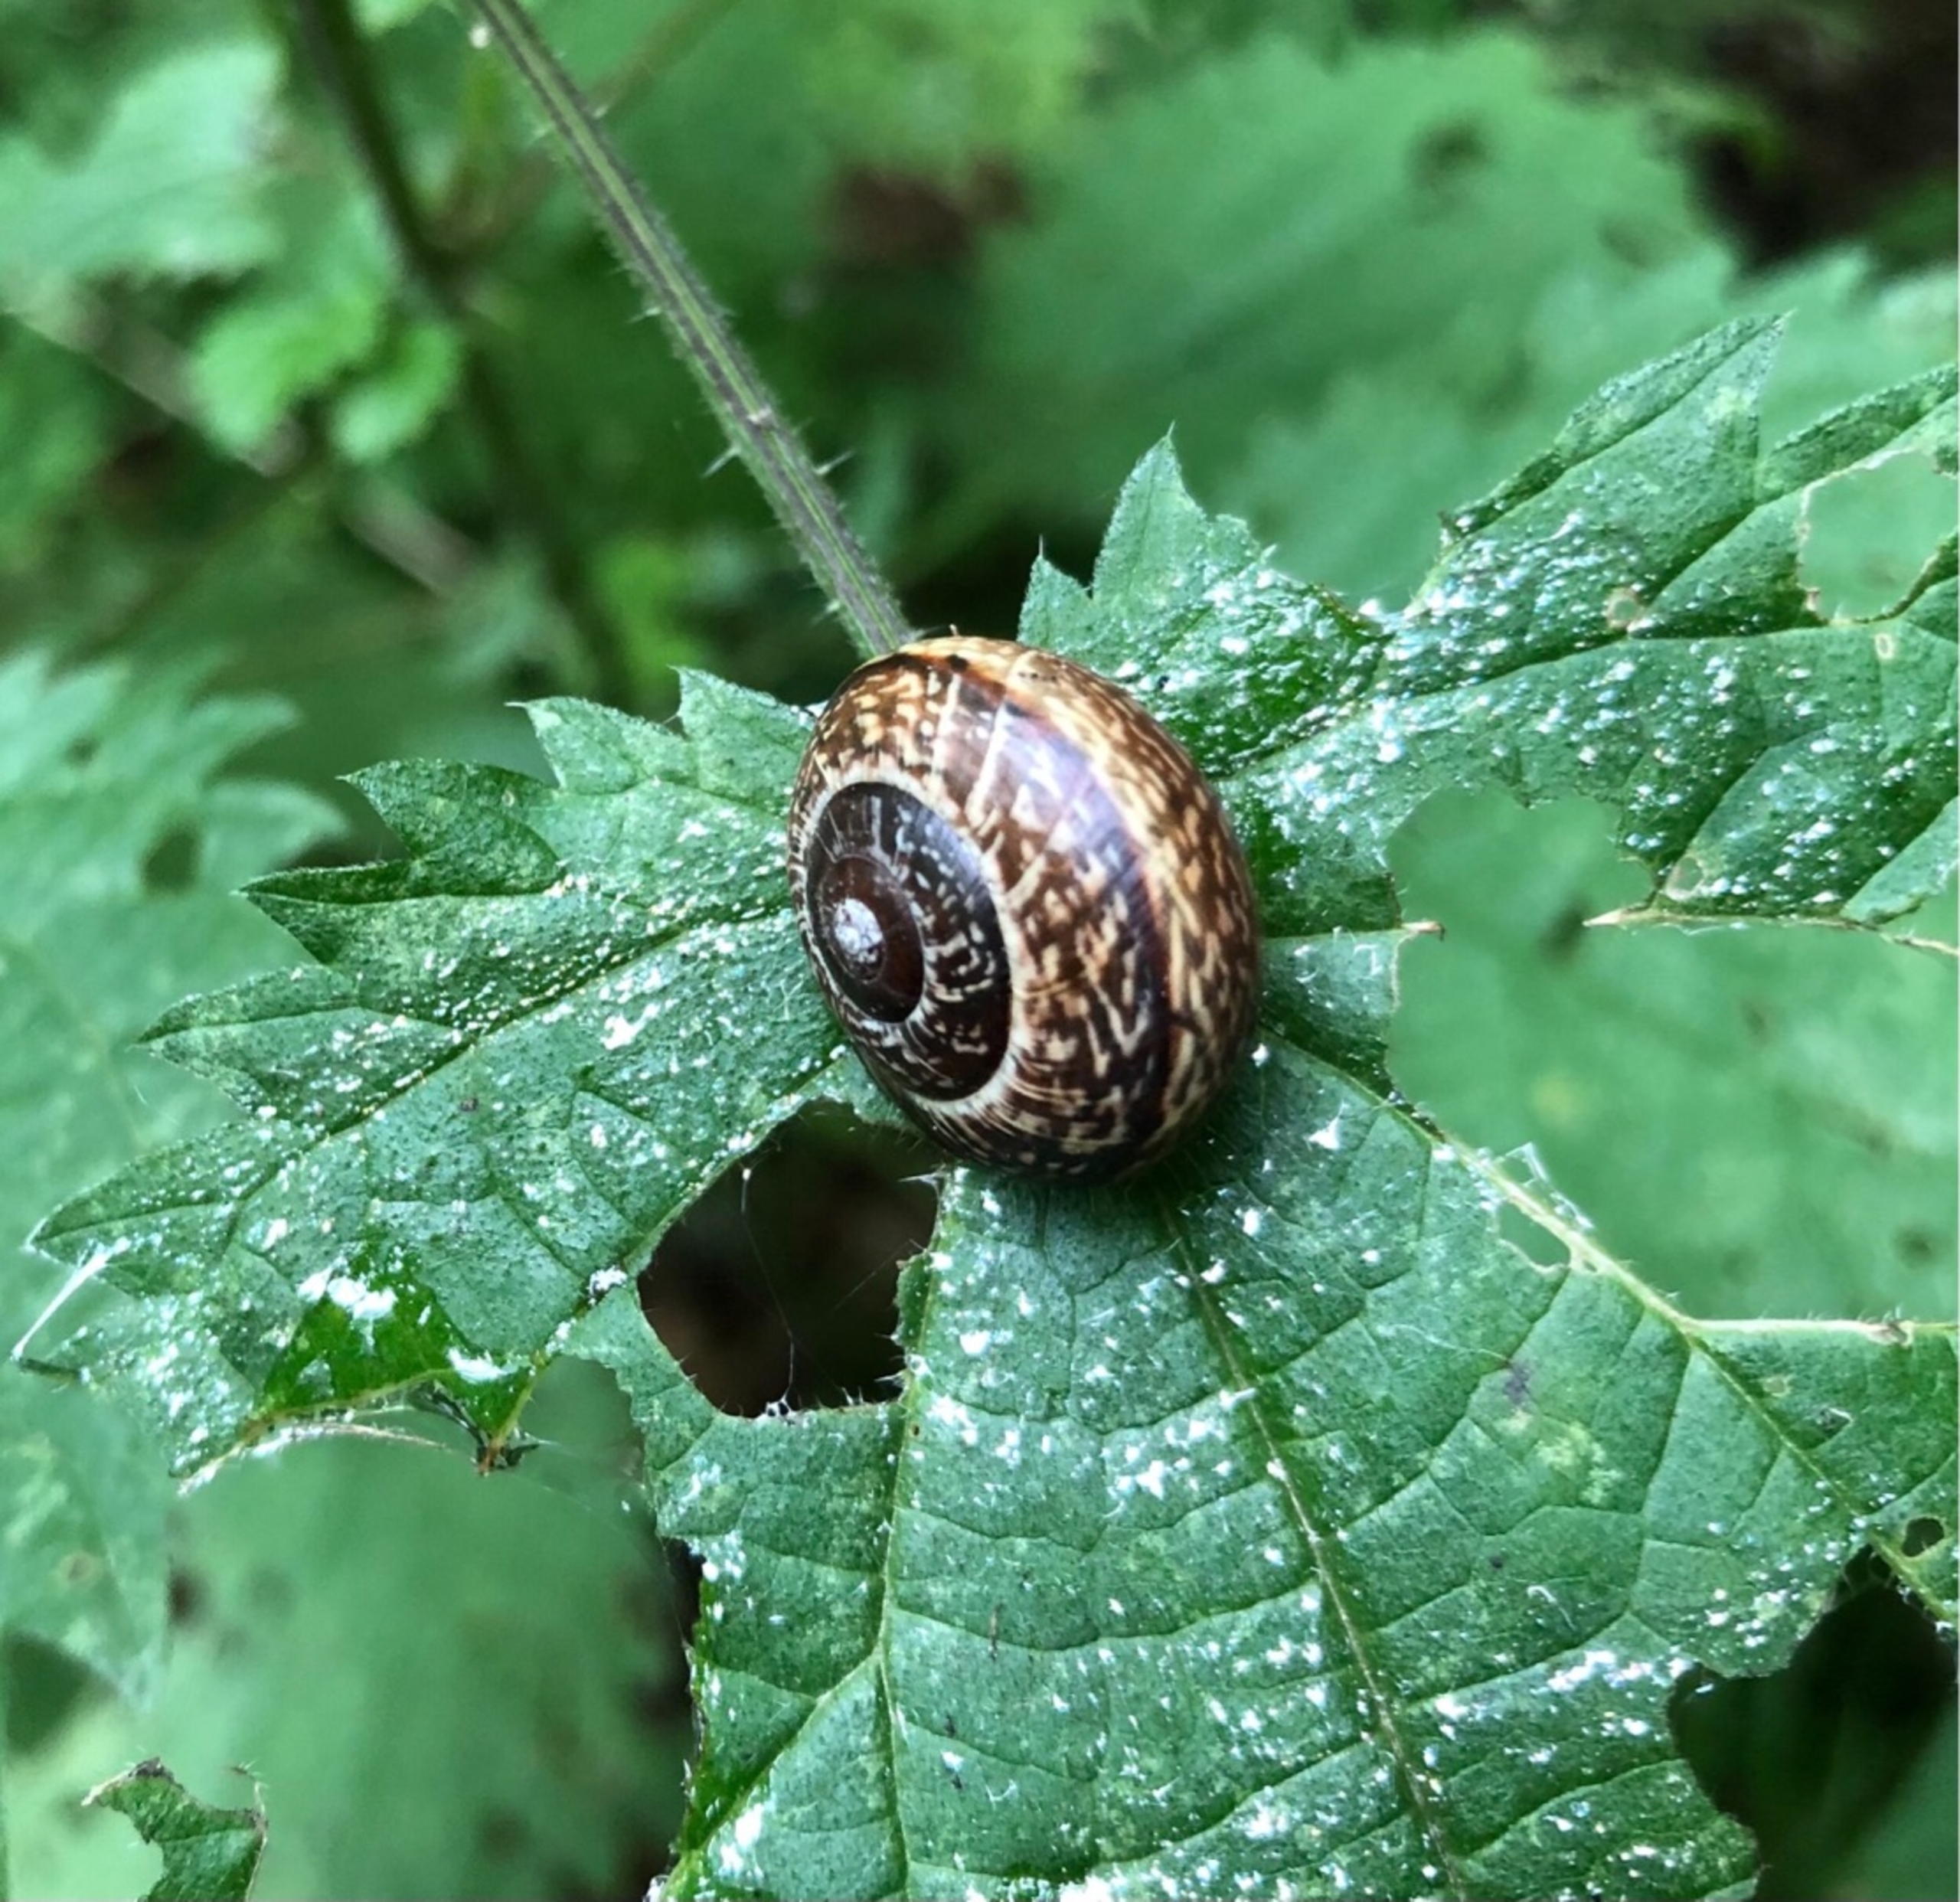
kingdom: Animalia
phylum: Mollusca
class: Gastropoda
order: Stylommatophora
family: Helicidae
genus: Arianta
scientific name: Arianta arbustorum
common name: Kratsnegl
